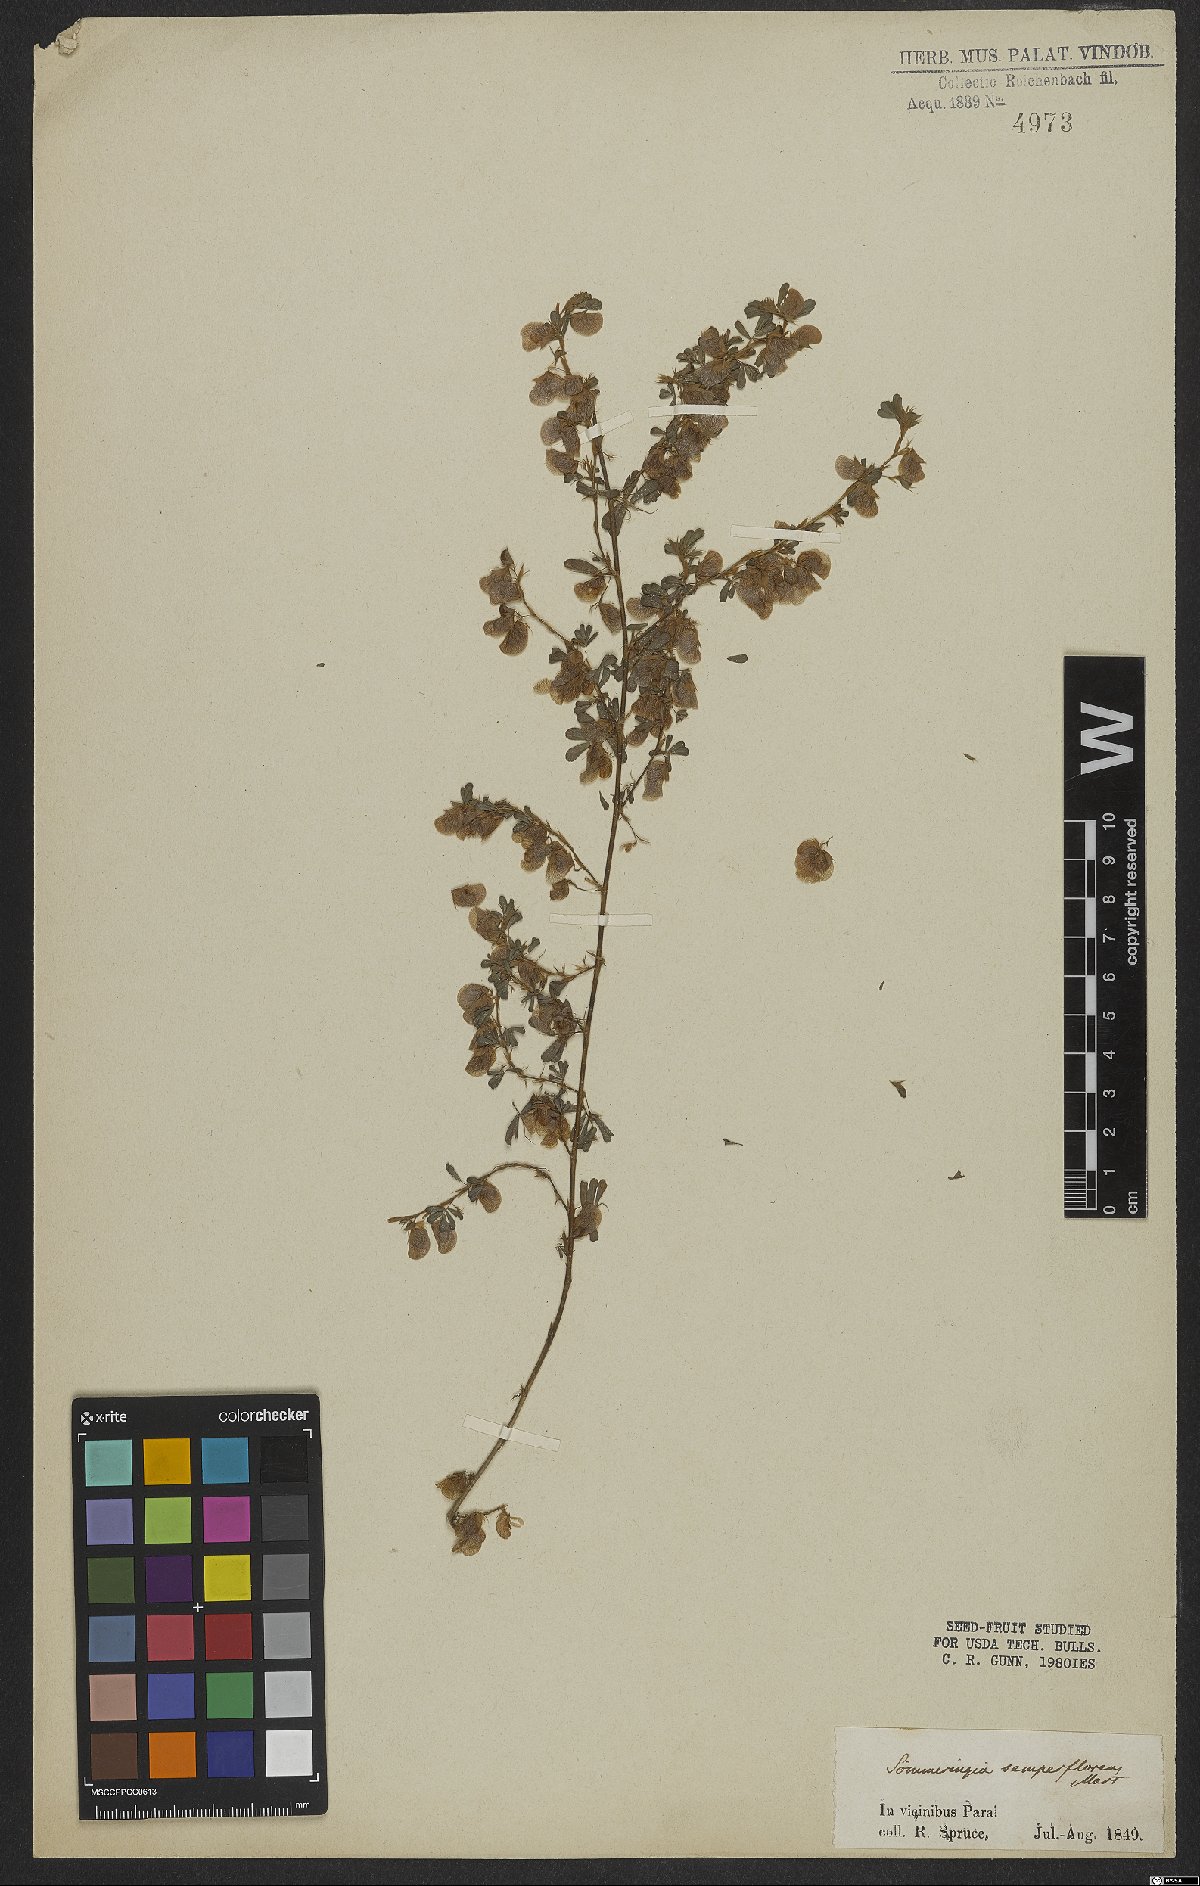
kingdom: Plantae
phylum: Tracheophyta
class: Magnoliopsida
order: Fabales
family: Fabaceae
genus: Soemmeringia
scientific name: Soemmeringia semperflorens
